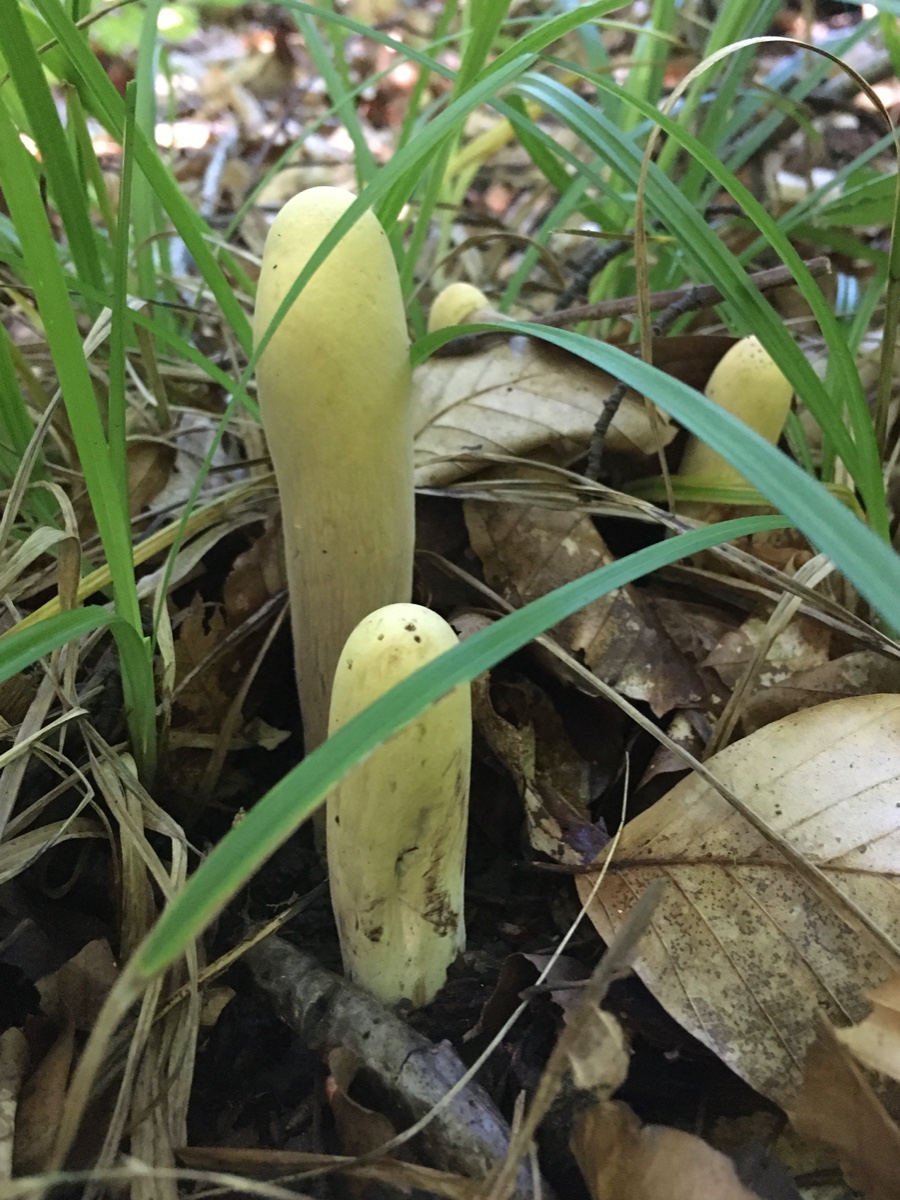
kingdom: Fungi
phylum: Basidiomycota
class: Agaricomycetes
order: Gomphales
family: Clavariadelphaceae
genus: Clavariadelphus
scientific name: Clavariadelphus pistillaris
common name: herkules-kæmpekølle
